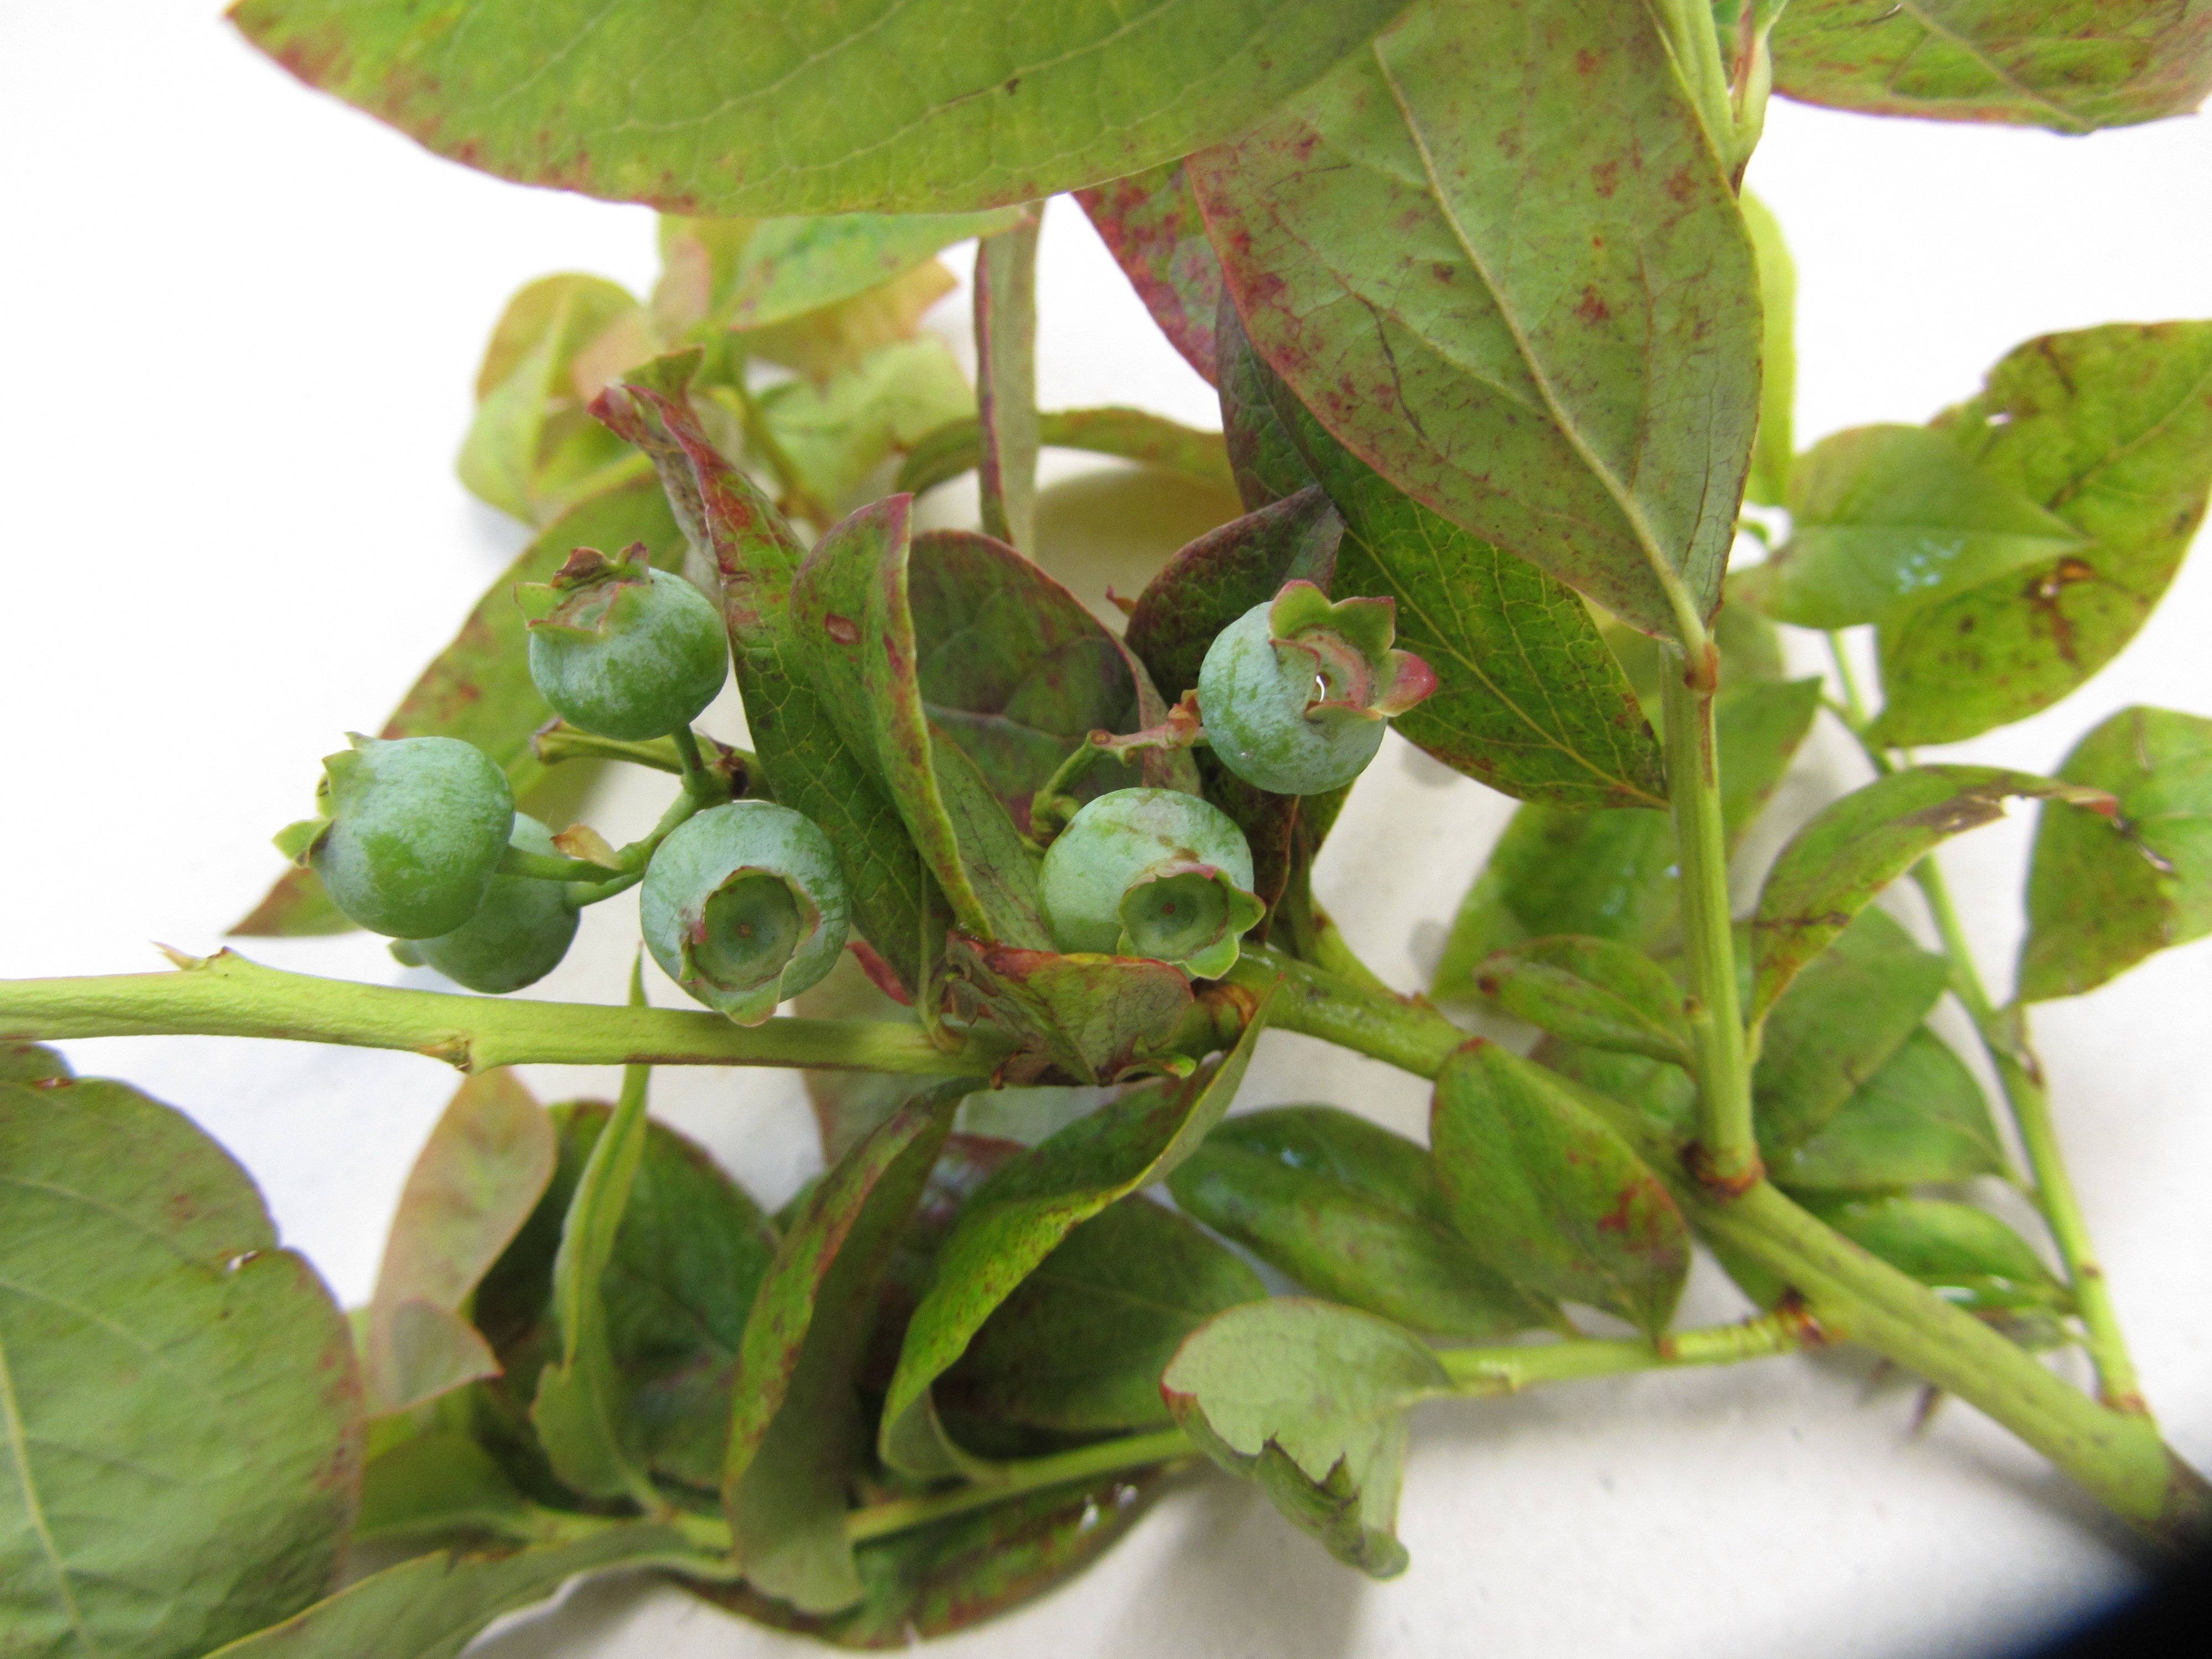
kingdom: Plantae
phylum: Tracheophyta
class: Magnoliopsida
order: Ericales
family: Ericaceae
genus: Vaccinium
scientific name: Vaccinium corymbosum
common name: Blueberry
